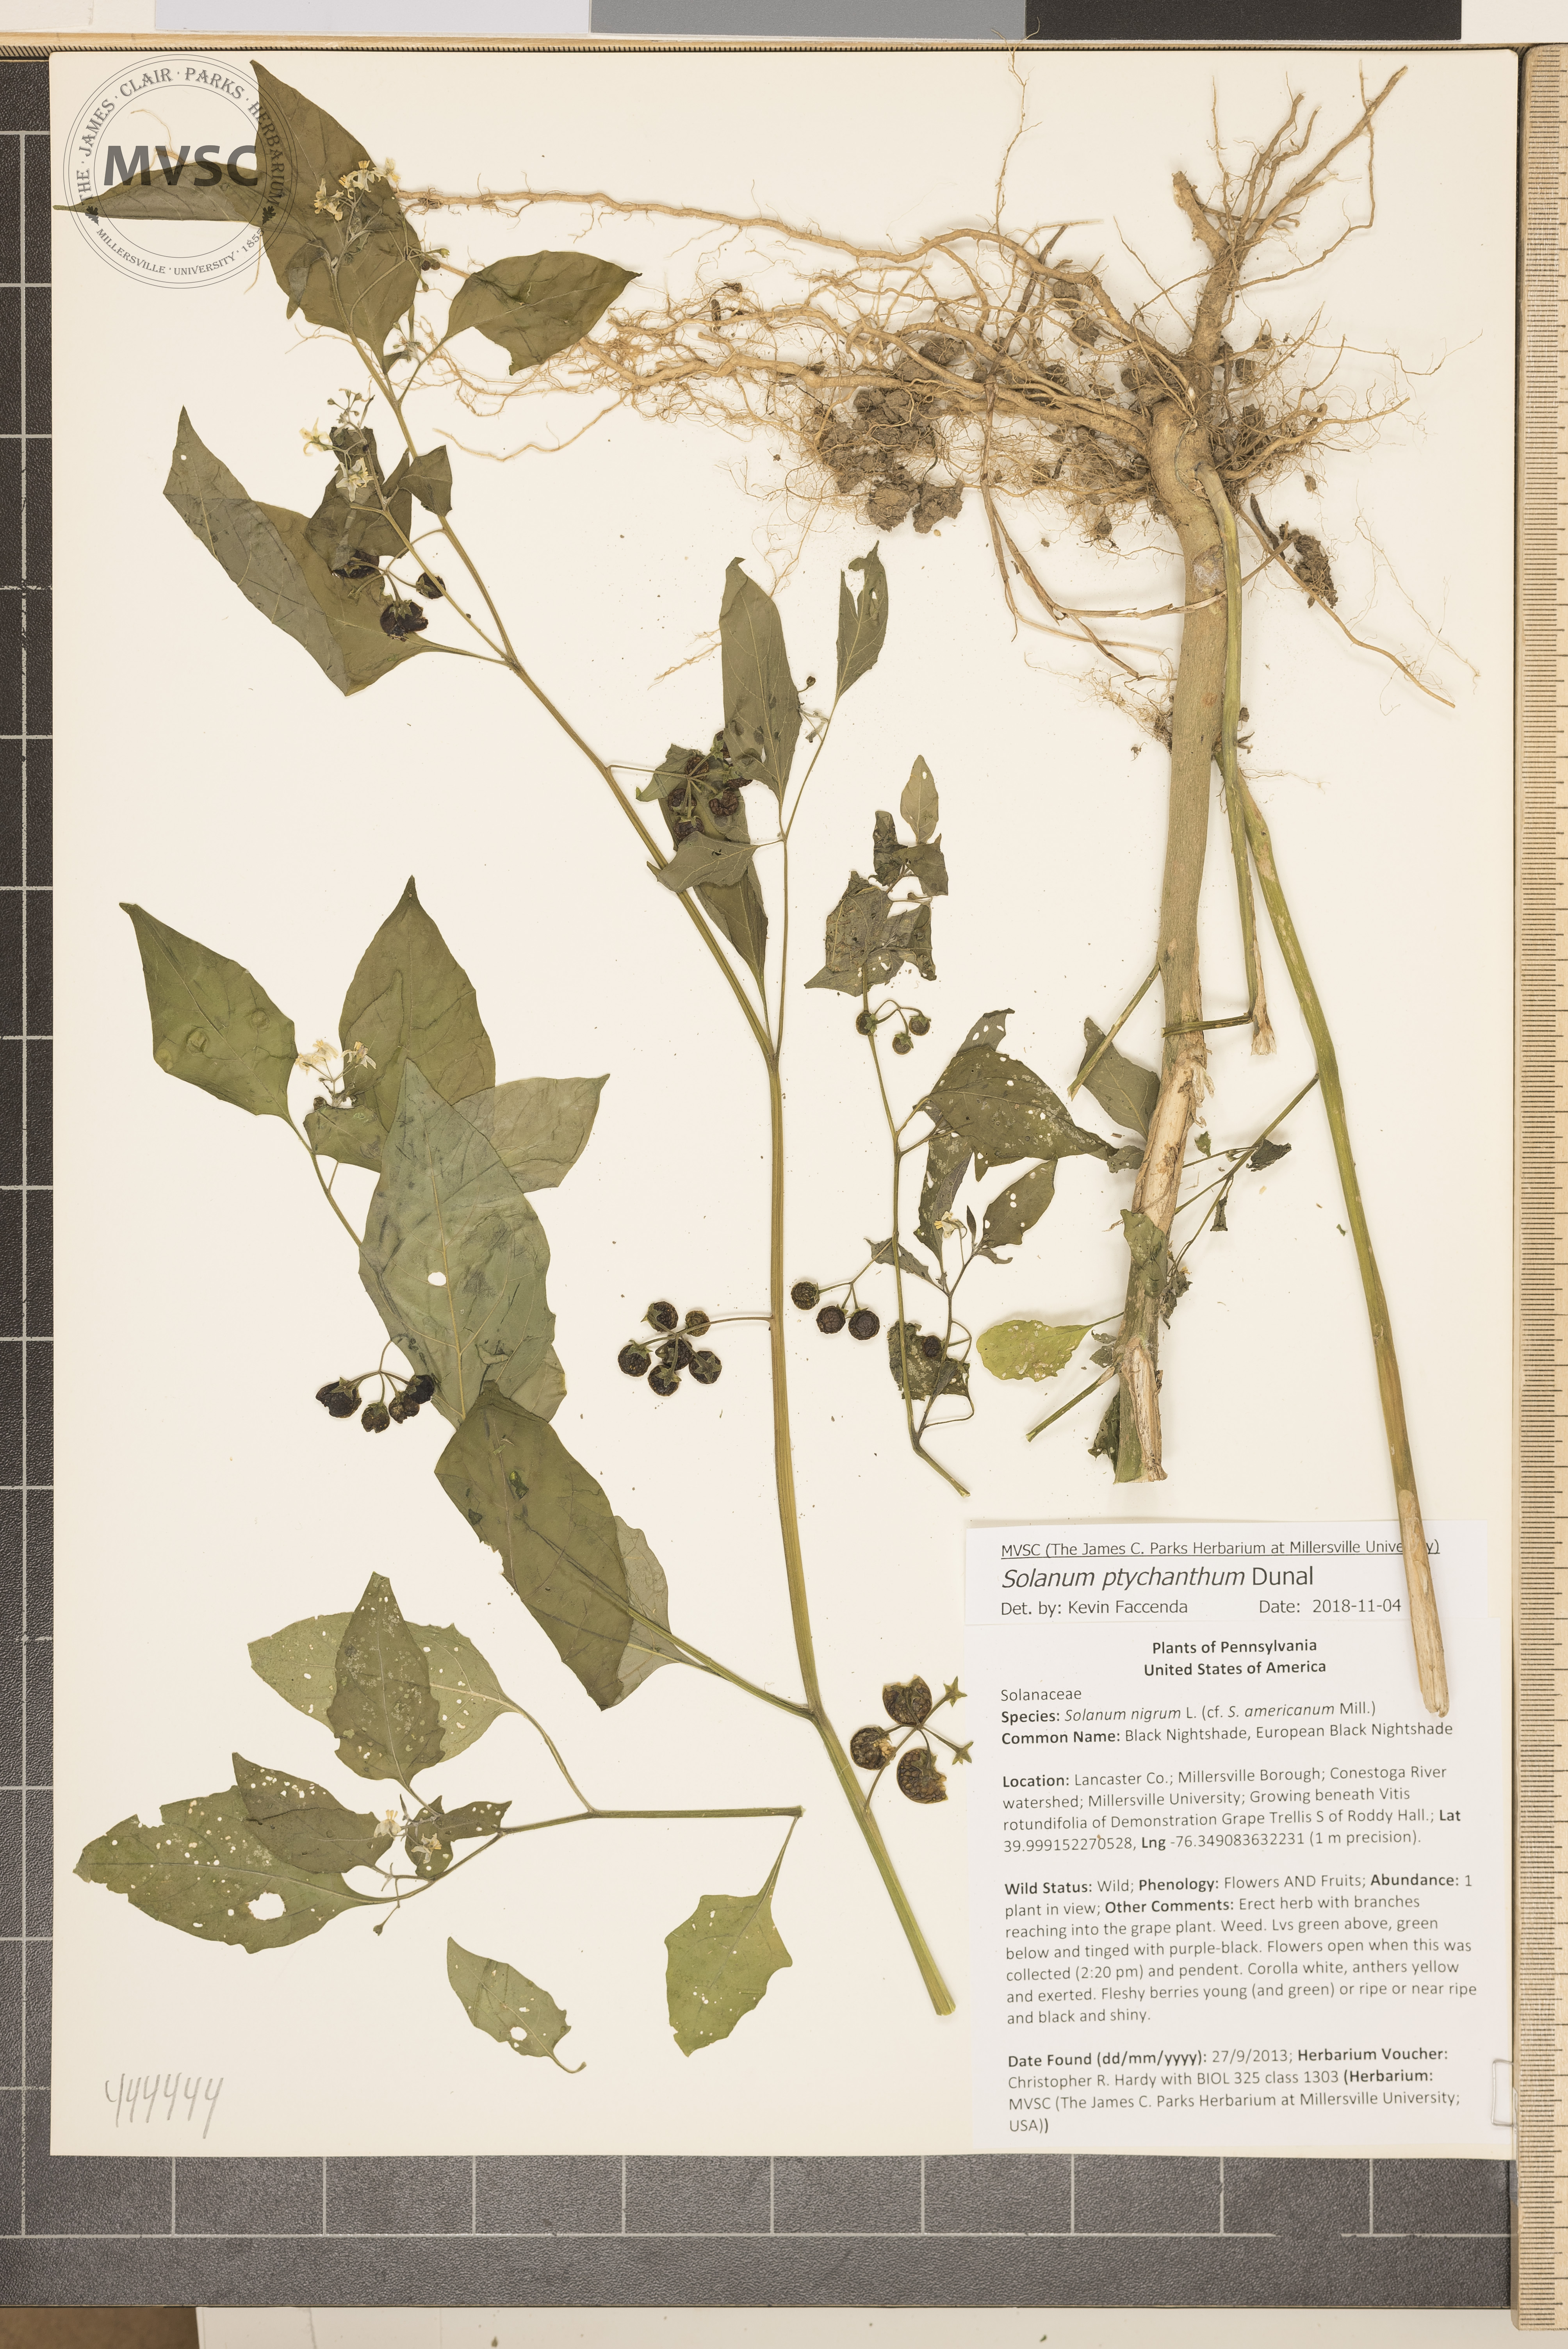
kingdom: Plantae
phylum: Tracheophyta
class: Magnoliopsida
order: Solanales
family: Solanaceae
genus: Solanum
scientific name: Solanum americanum
